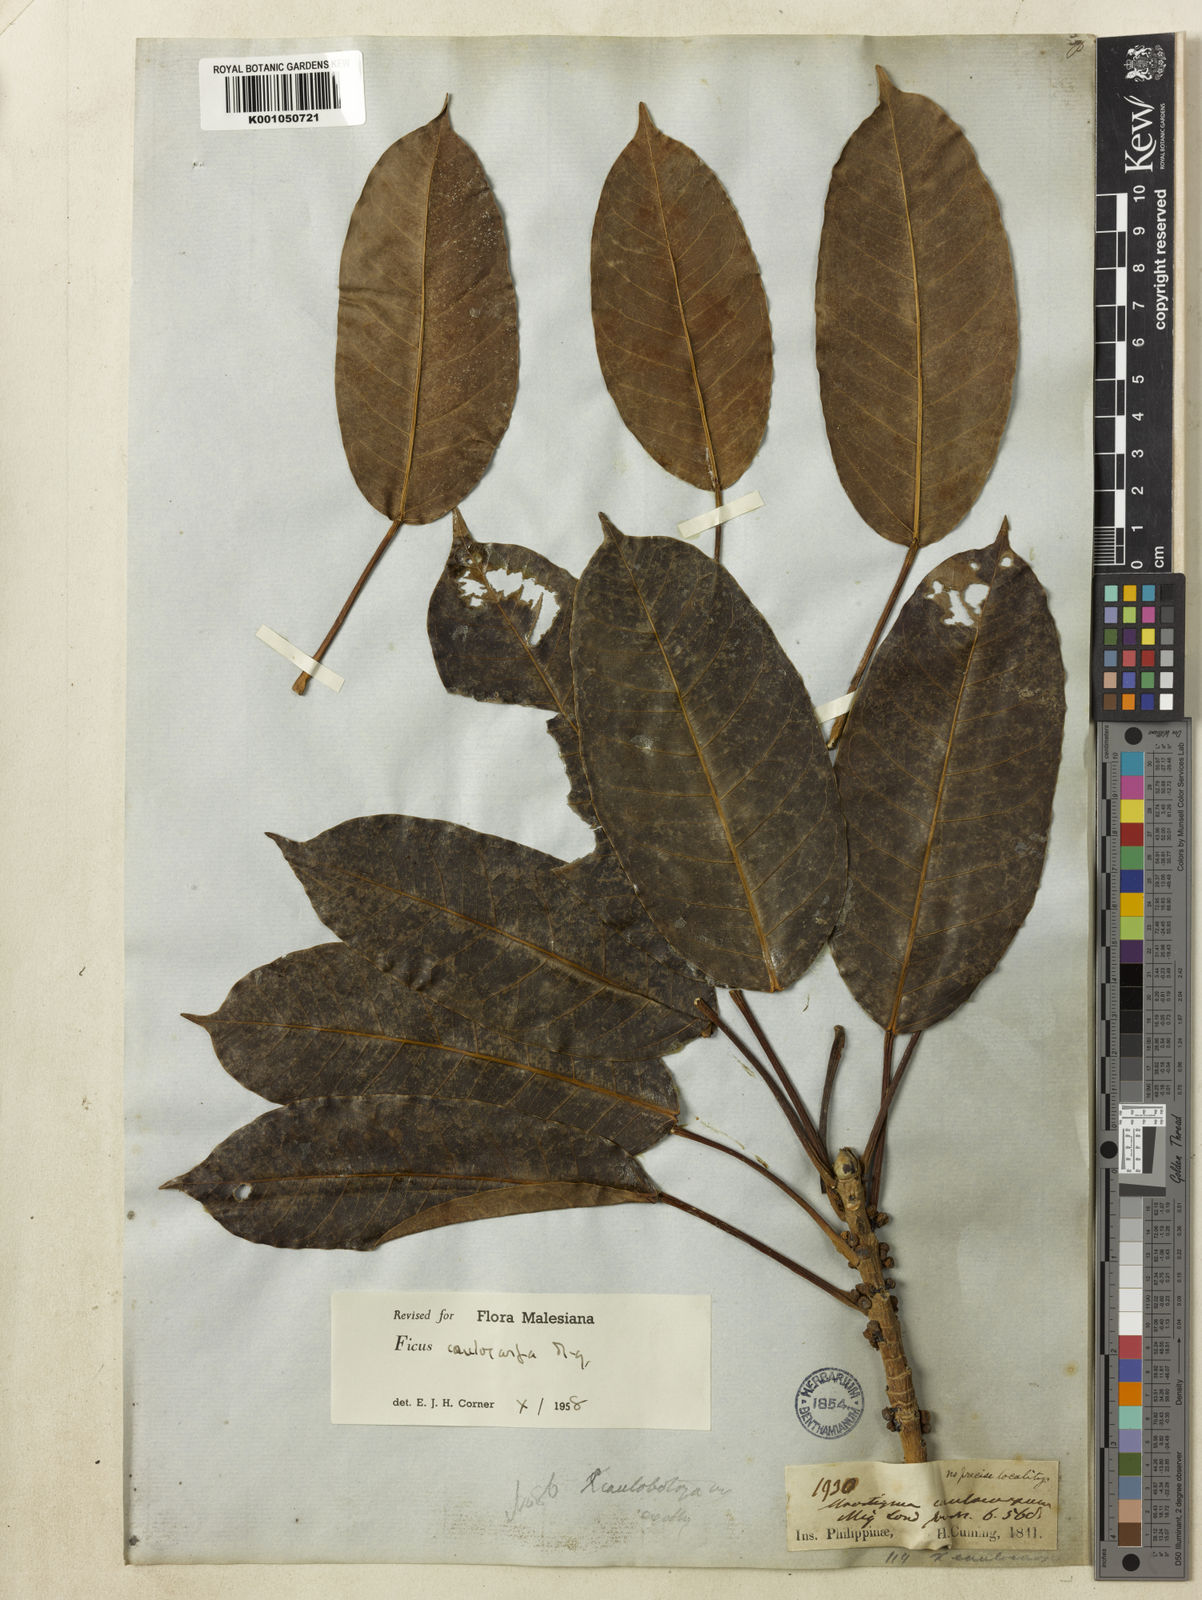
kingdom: Plantae
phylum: Tracheophyta
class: Magnoliopsida
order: Rosales
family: Moraceae
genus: Ficus
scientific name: Ficus caulocarpa
